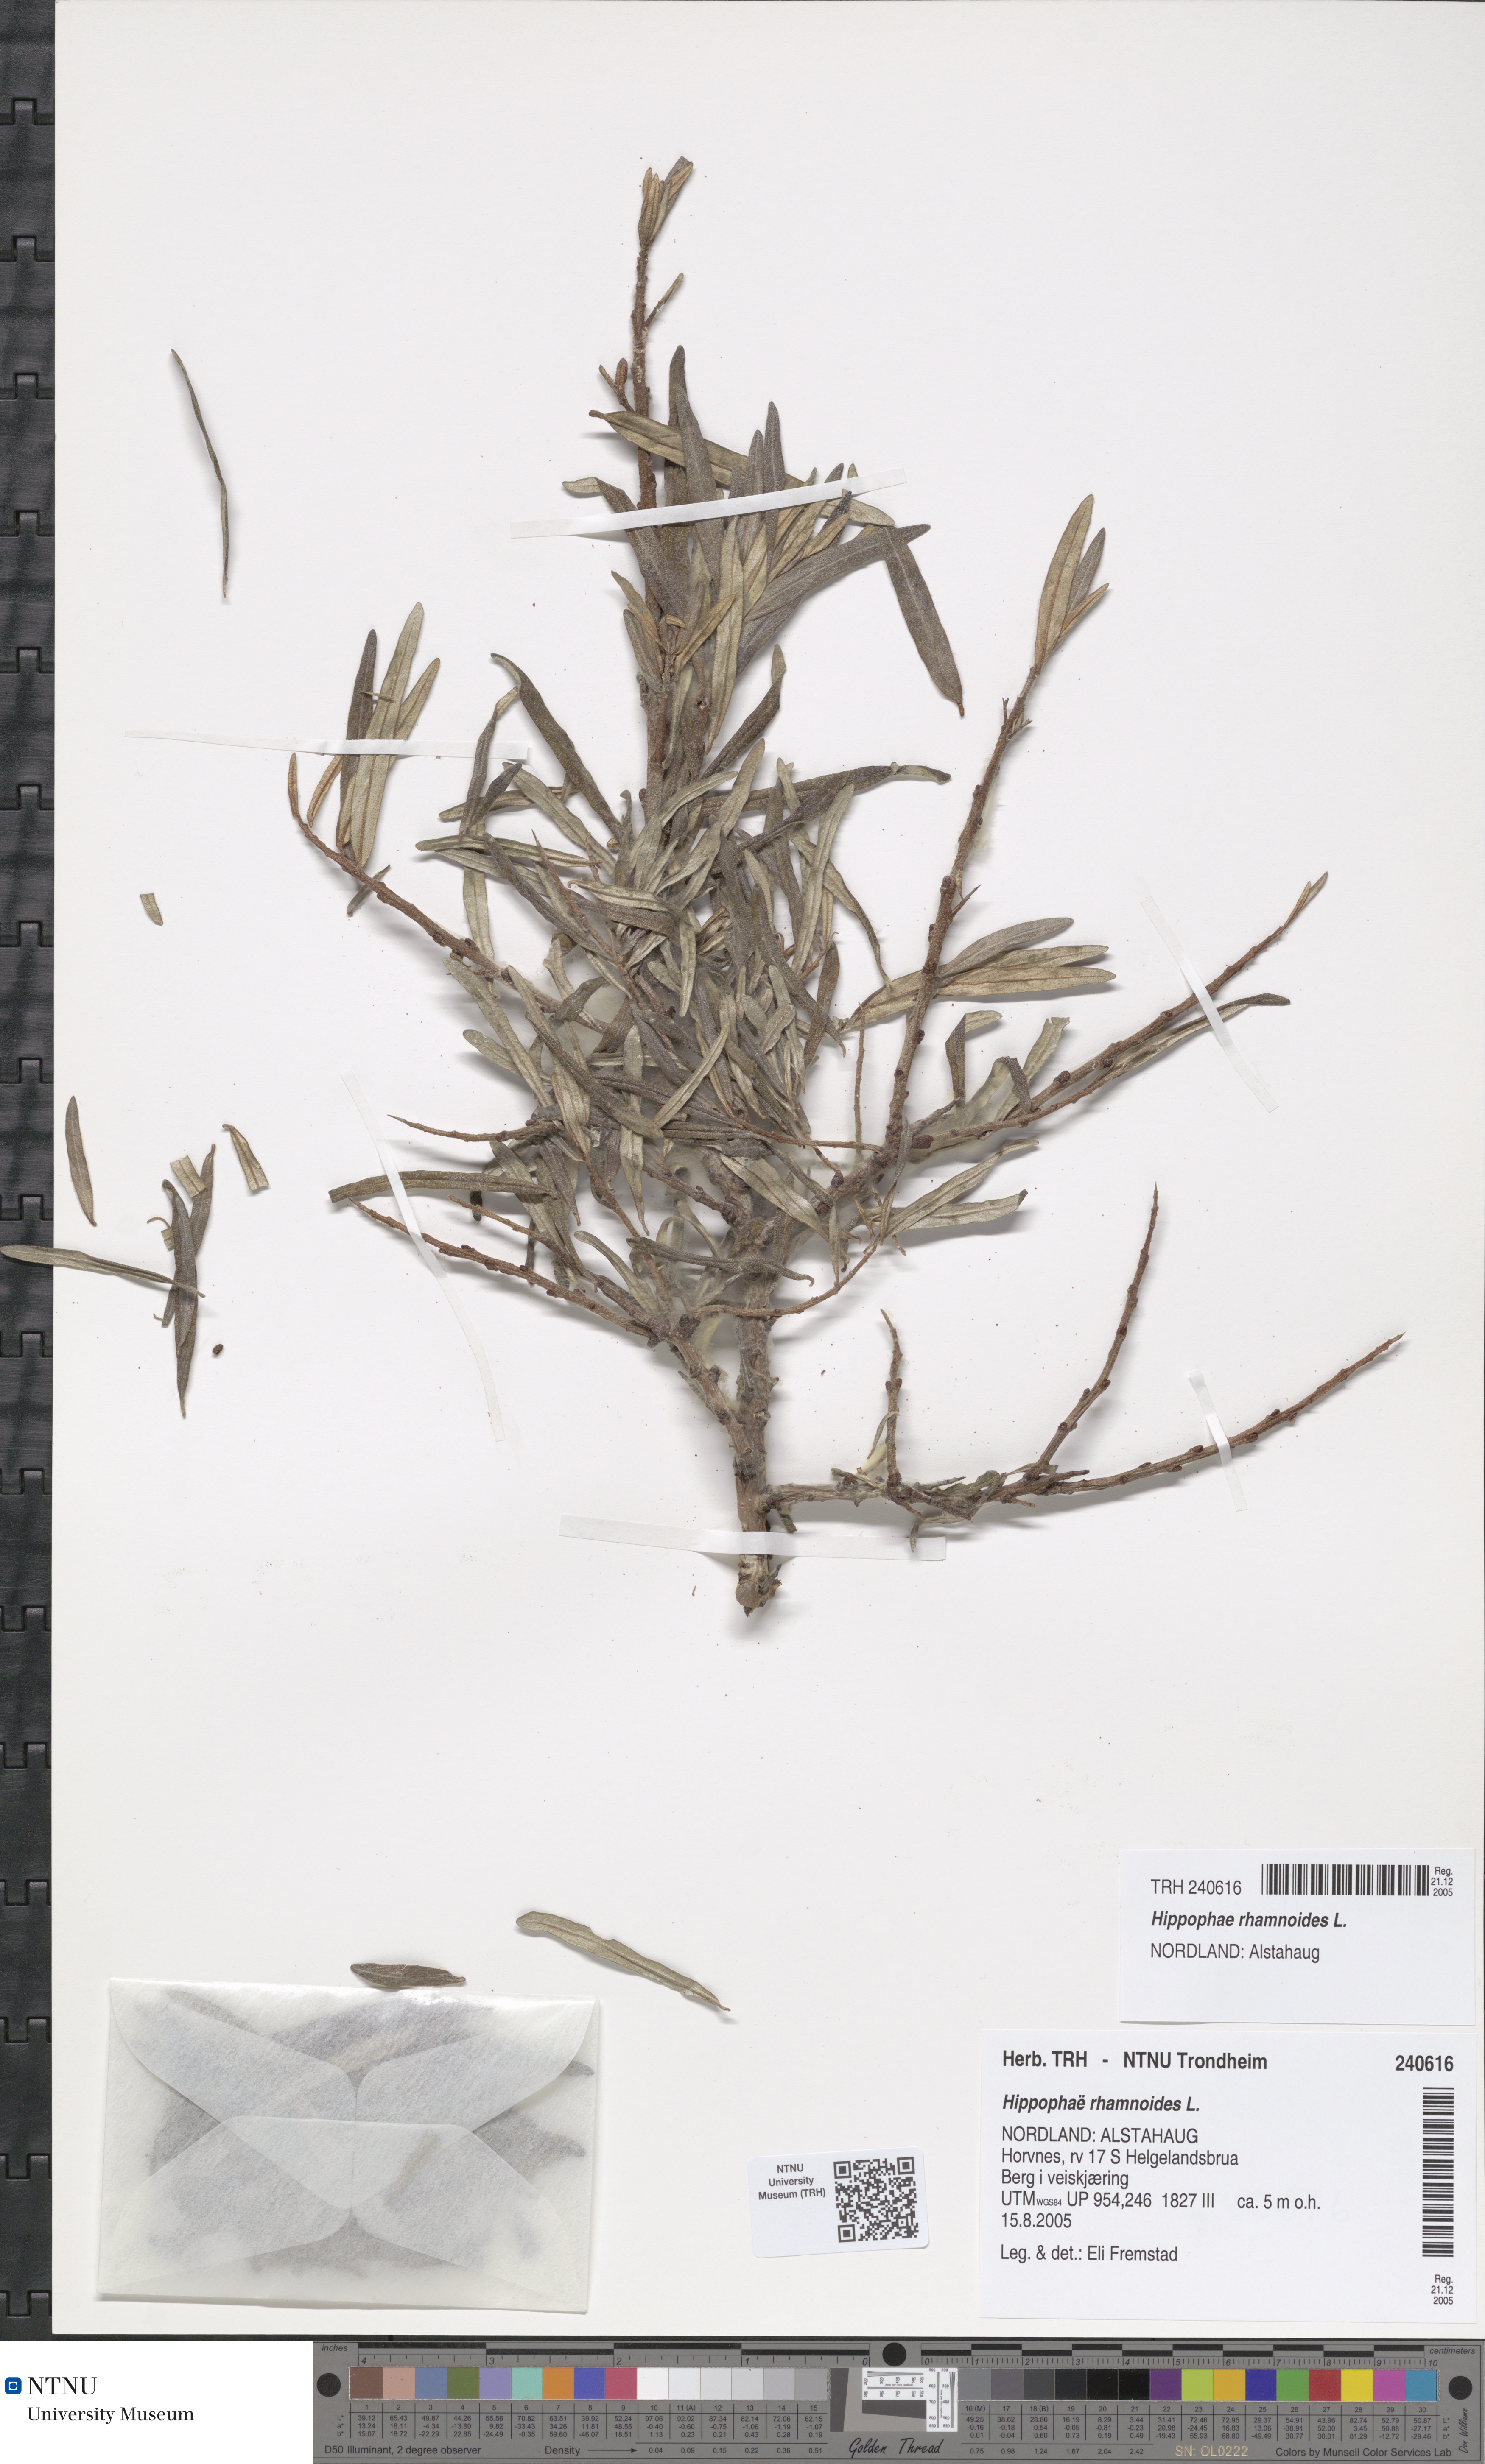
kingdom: Plantae
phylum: Tracheophyta
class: Magnoliopsida
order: Rosales
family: Elaeagnaceae
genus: Hippophae
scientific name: Hippophae rhamnoides
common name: Sea-buckthorn
